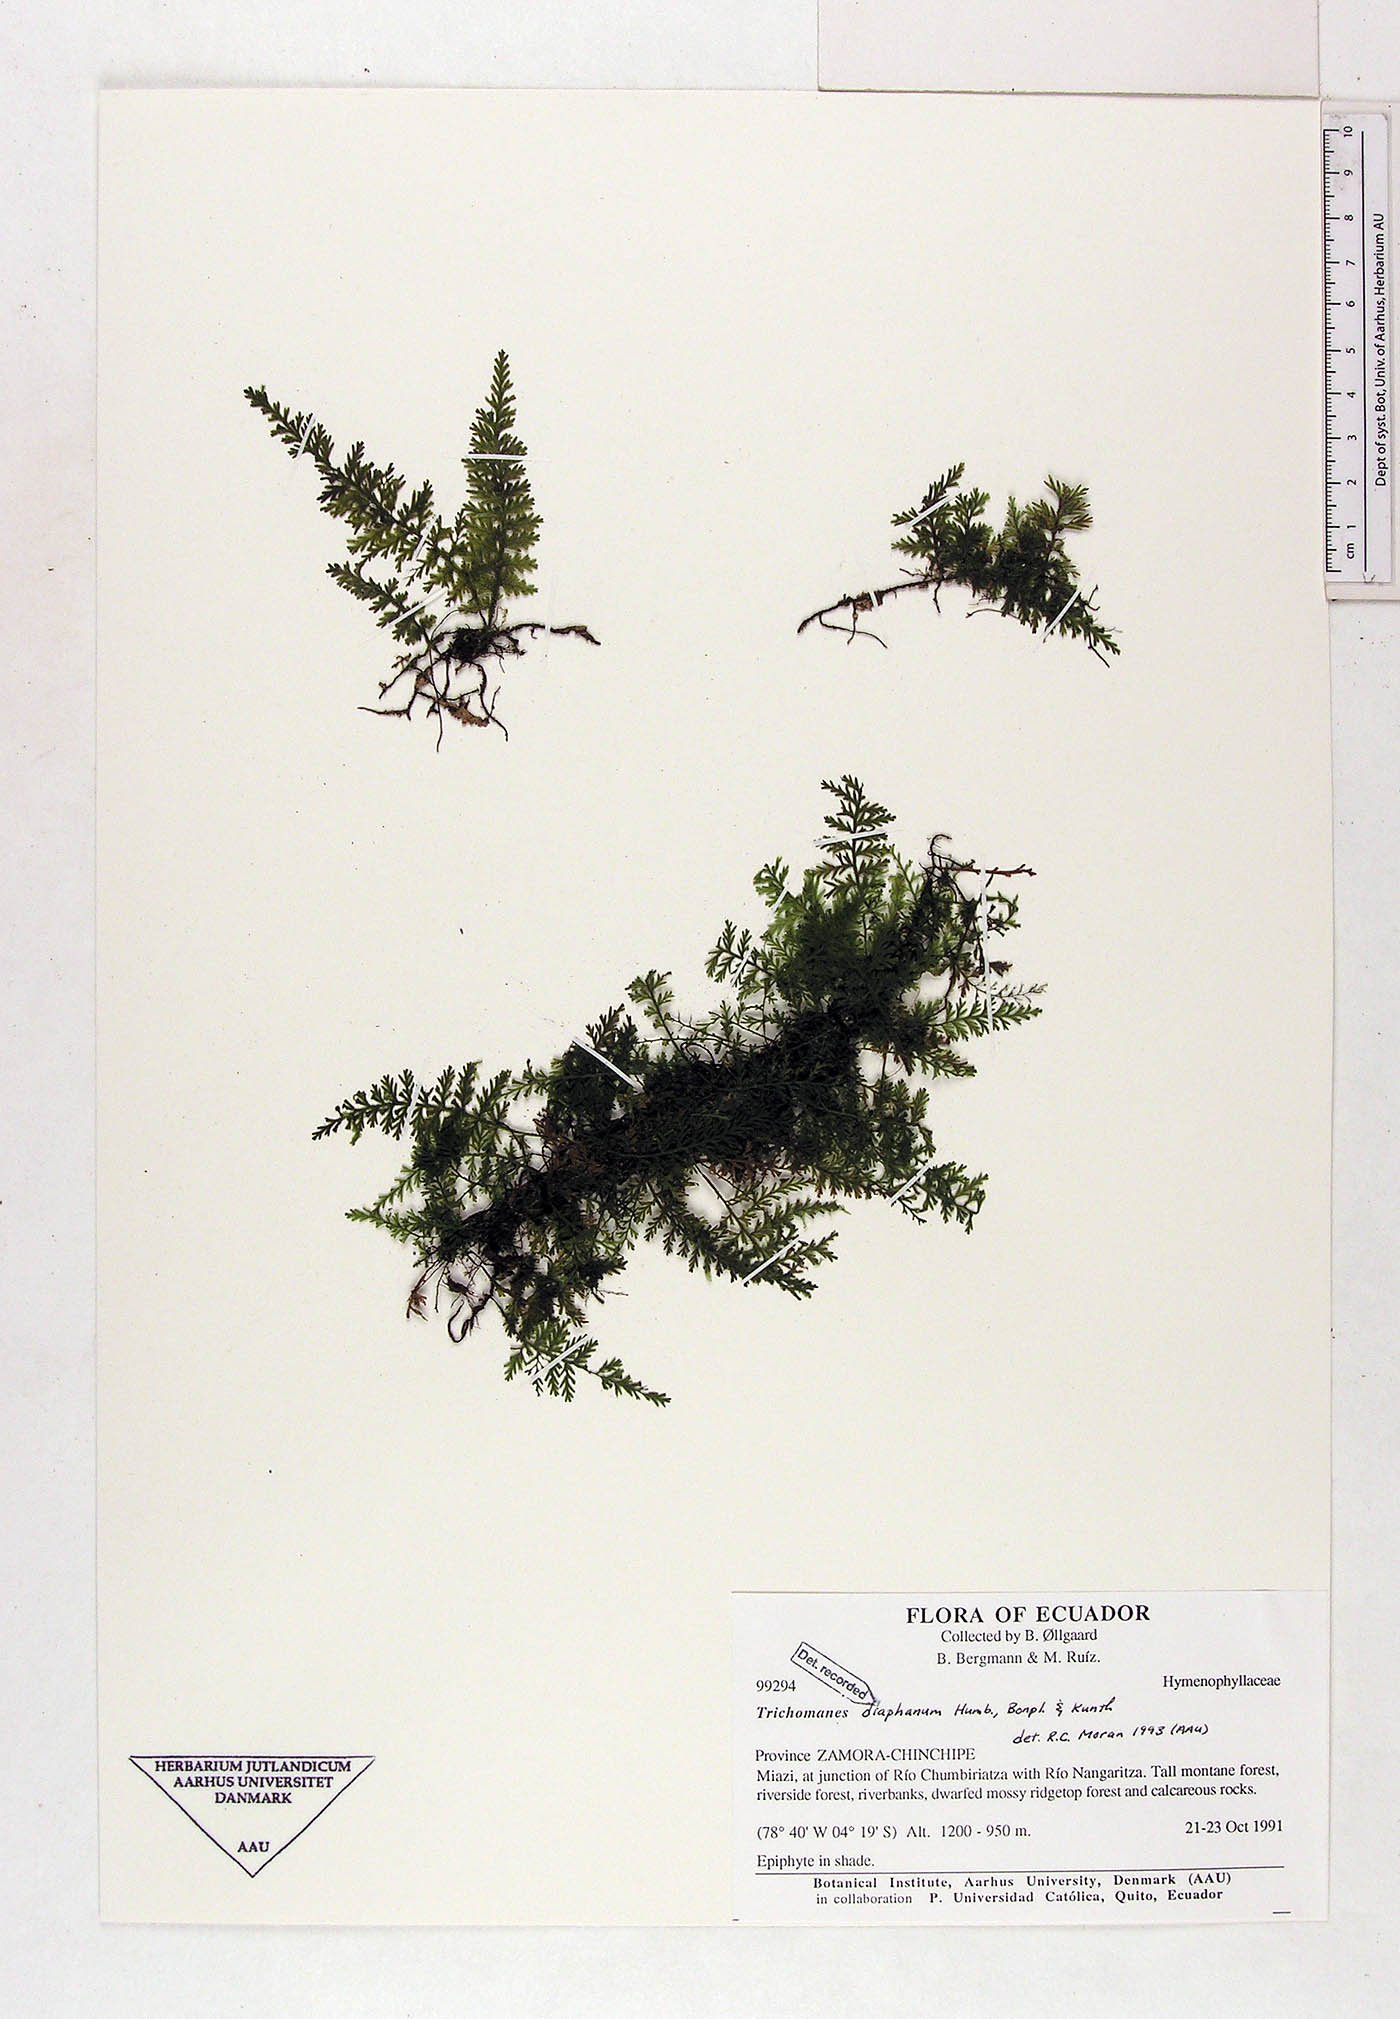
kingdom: Plantae
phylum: Tracheophyta
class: Polypodiopsida
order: Hymenophyllales
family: Hymenophyllaceae
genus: Polyphlebium
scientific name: Polyphlebium diaphanum
